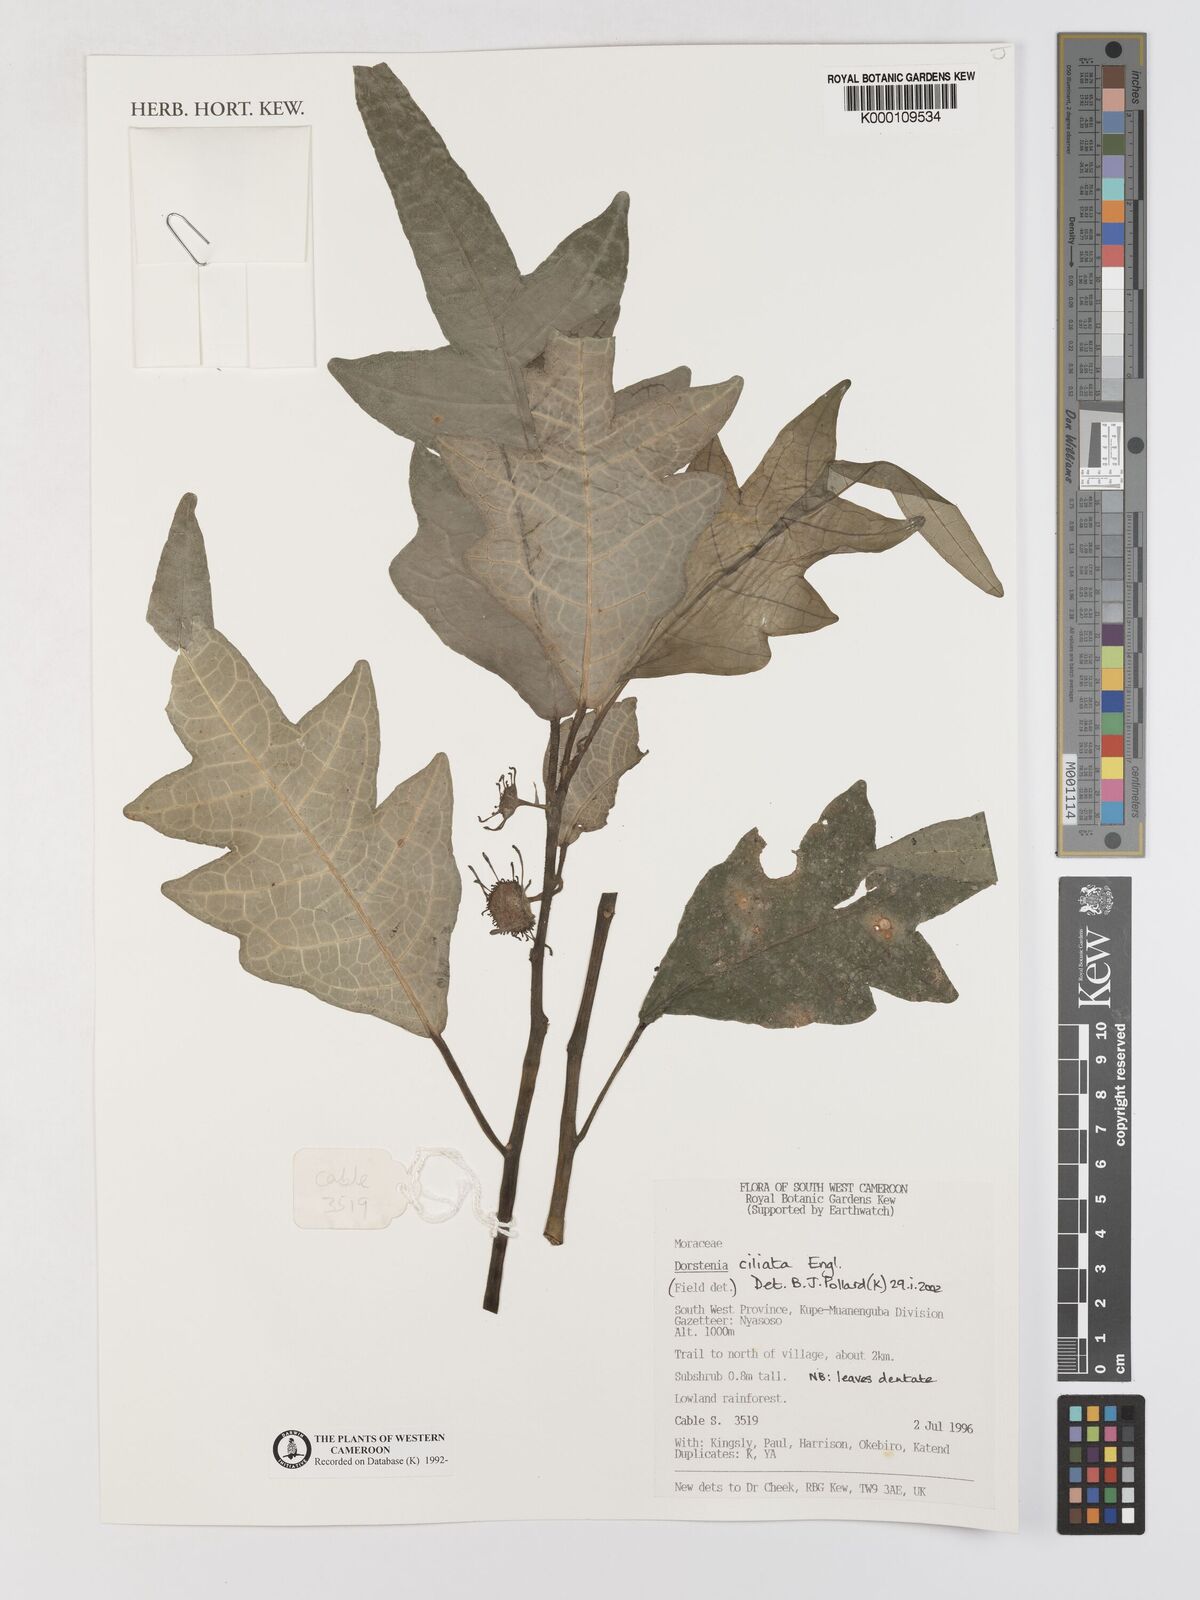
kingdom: Plantae
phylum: Tracheophyta
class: Magnoliopsida
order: Rosales
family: Moraceae
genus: Dorstenia
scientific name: Dorstenia ciliata
